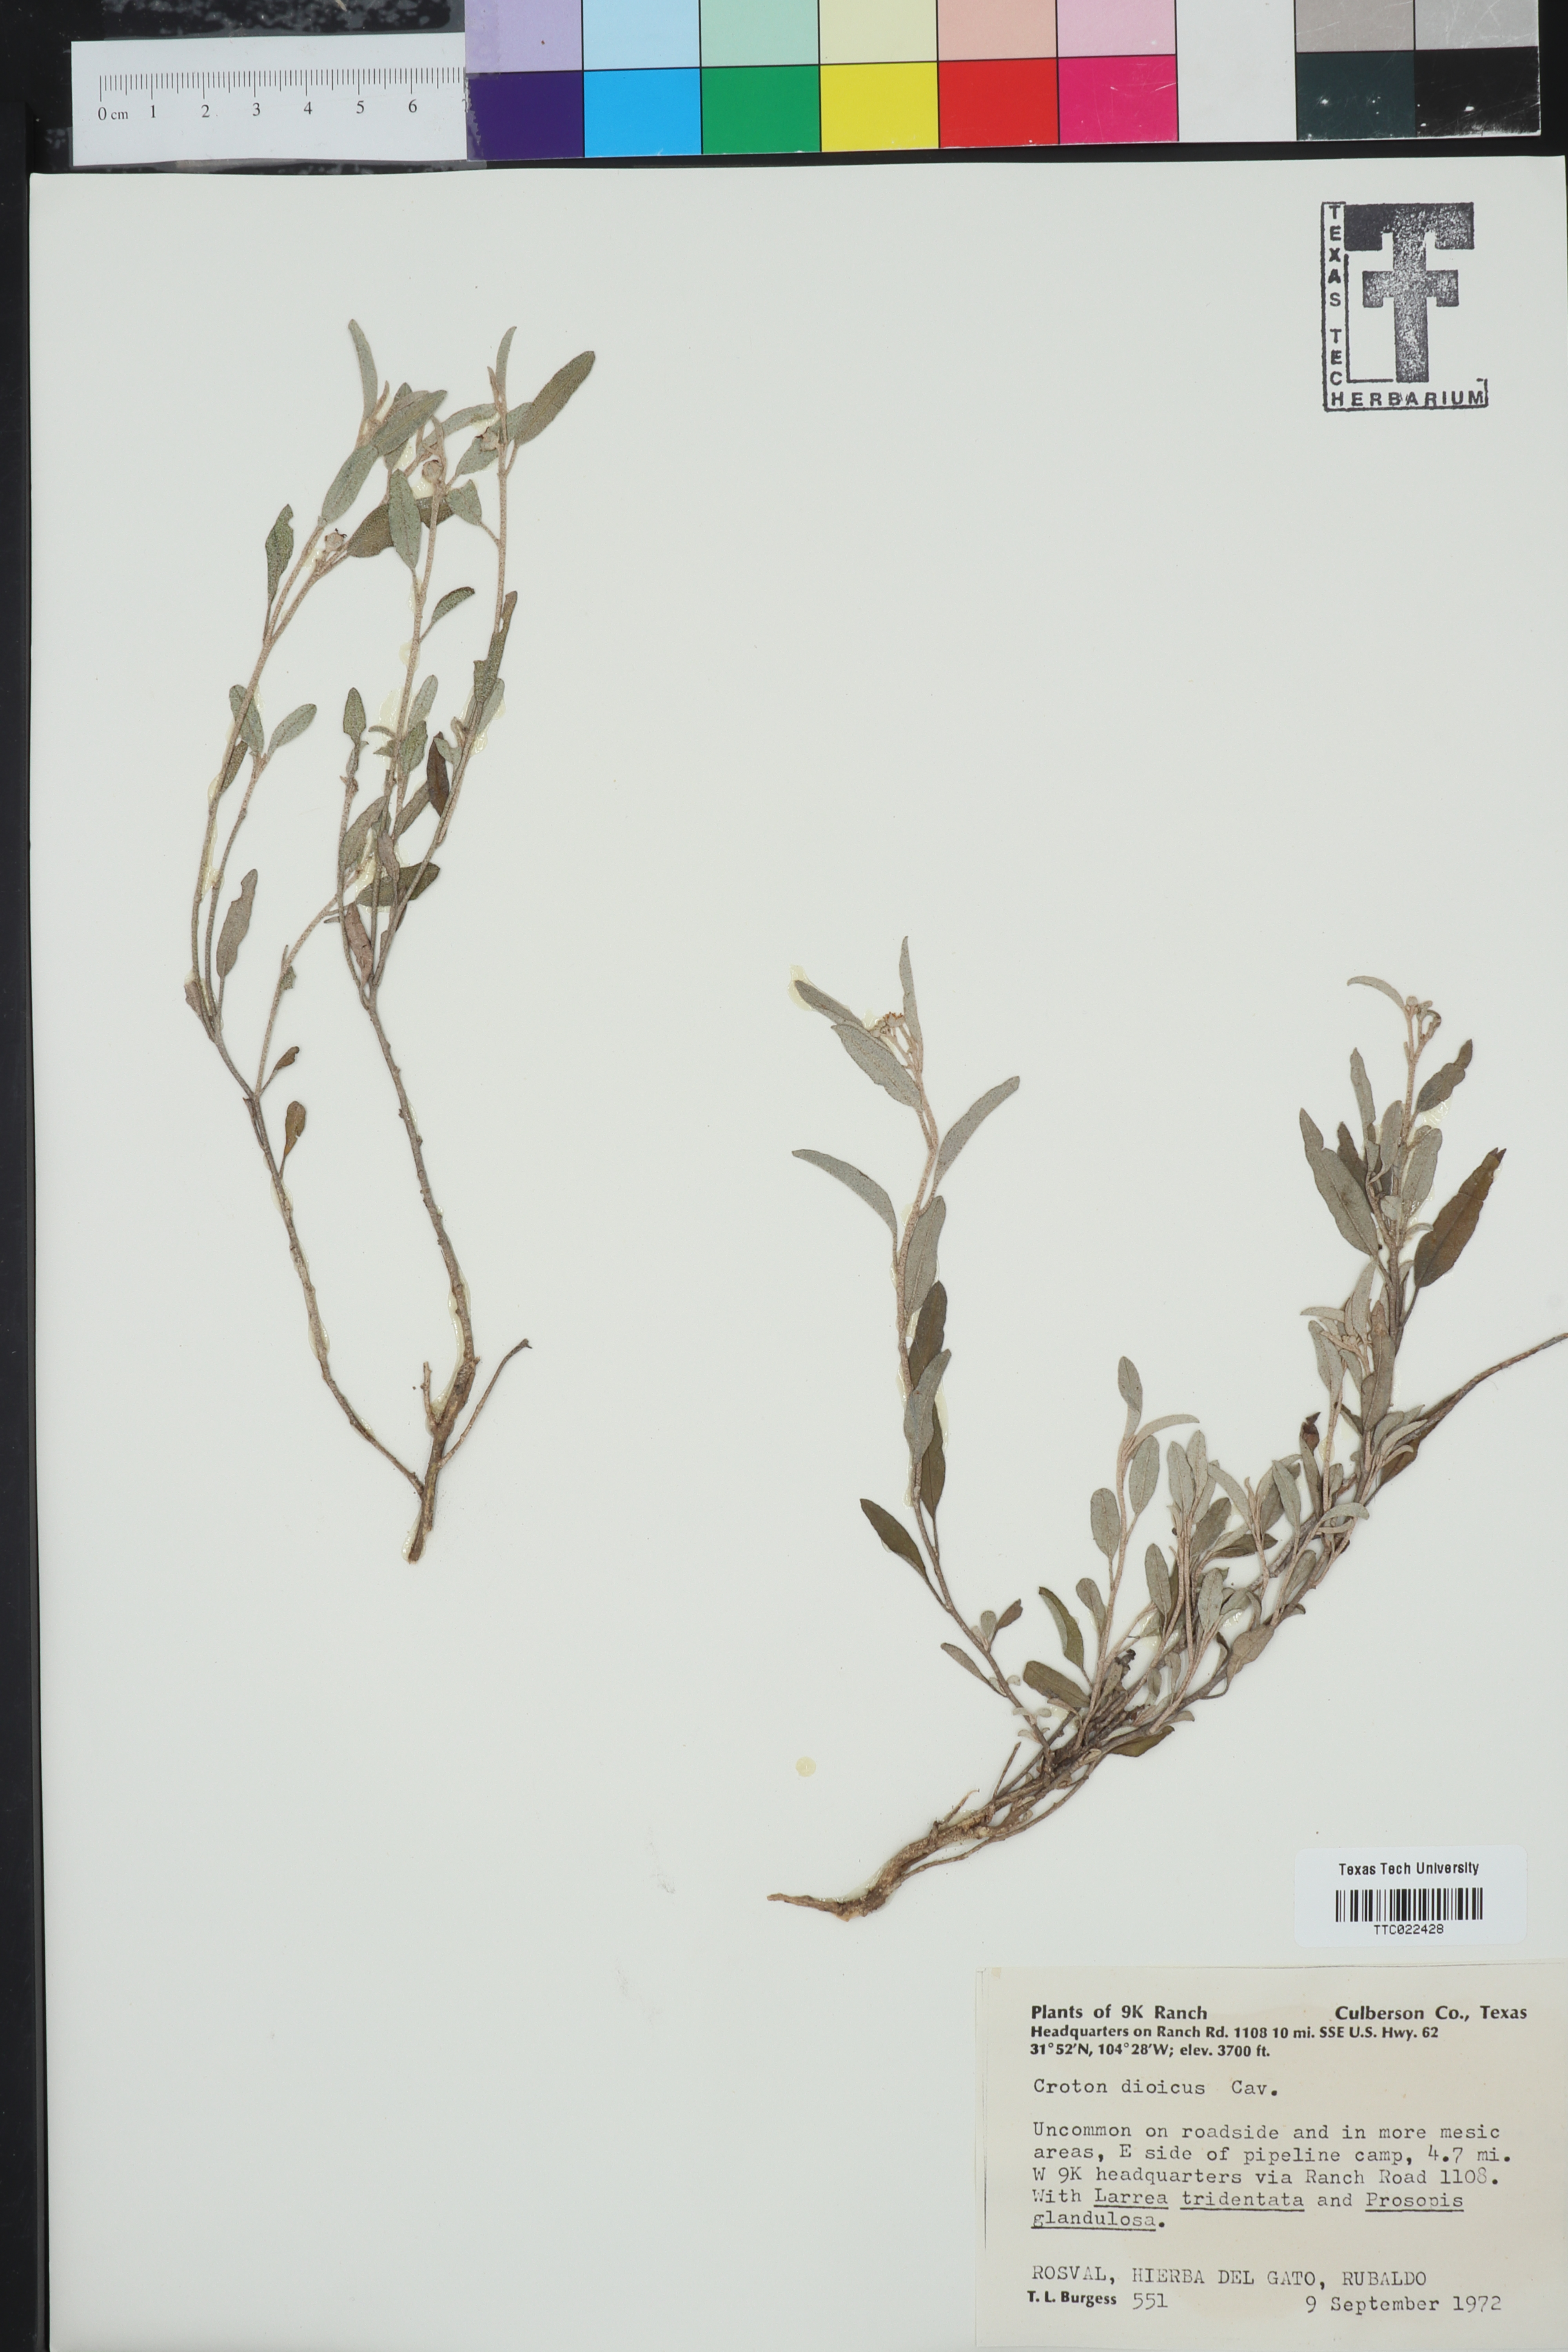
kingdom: Plantae
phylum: Tracheophyta
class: Magnoliopsida
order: Malpighiales
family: Euphorbiaceae
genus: Croton
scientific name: Croton dioicus
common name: Grassland croton
